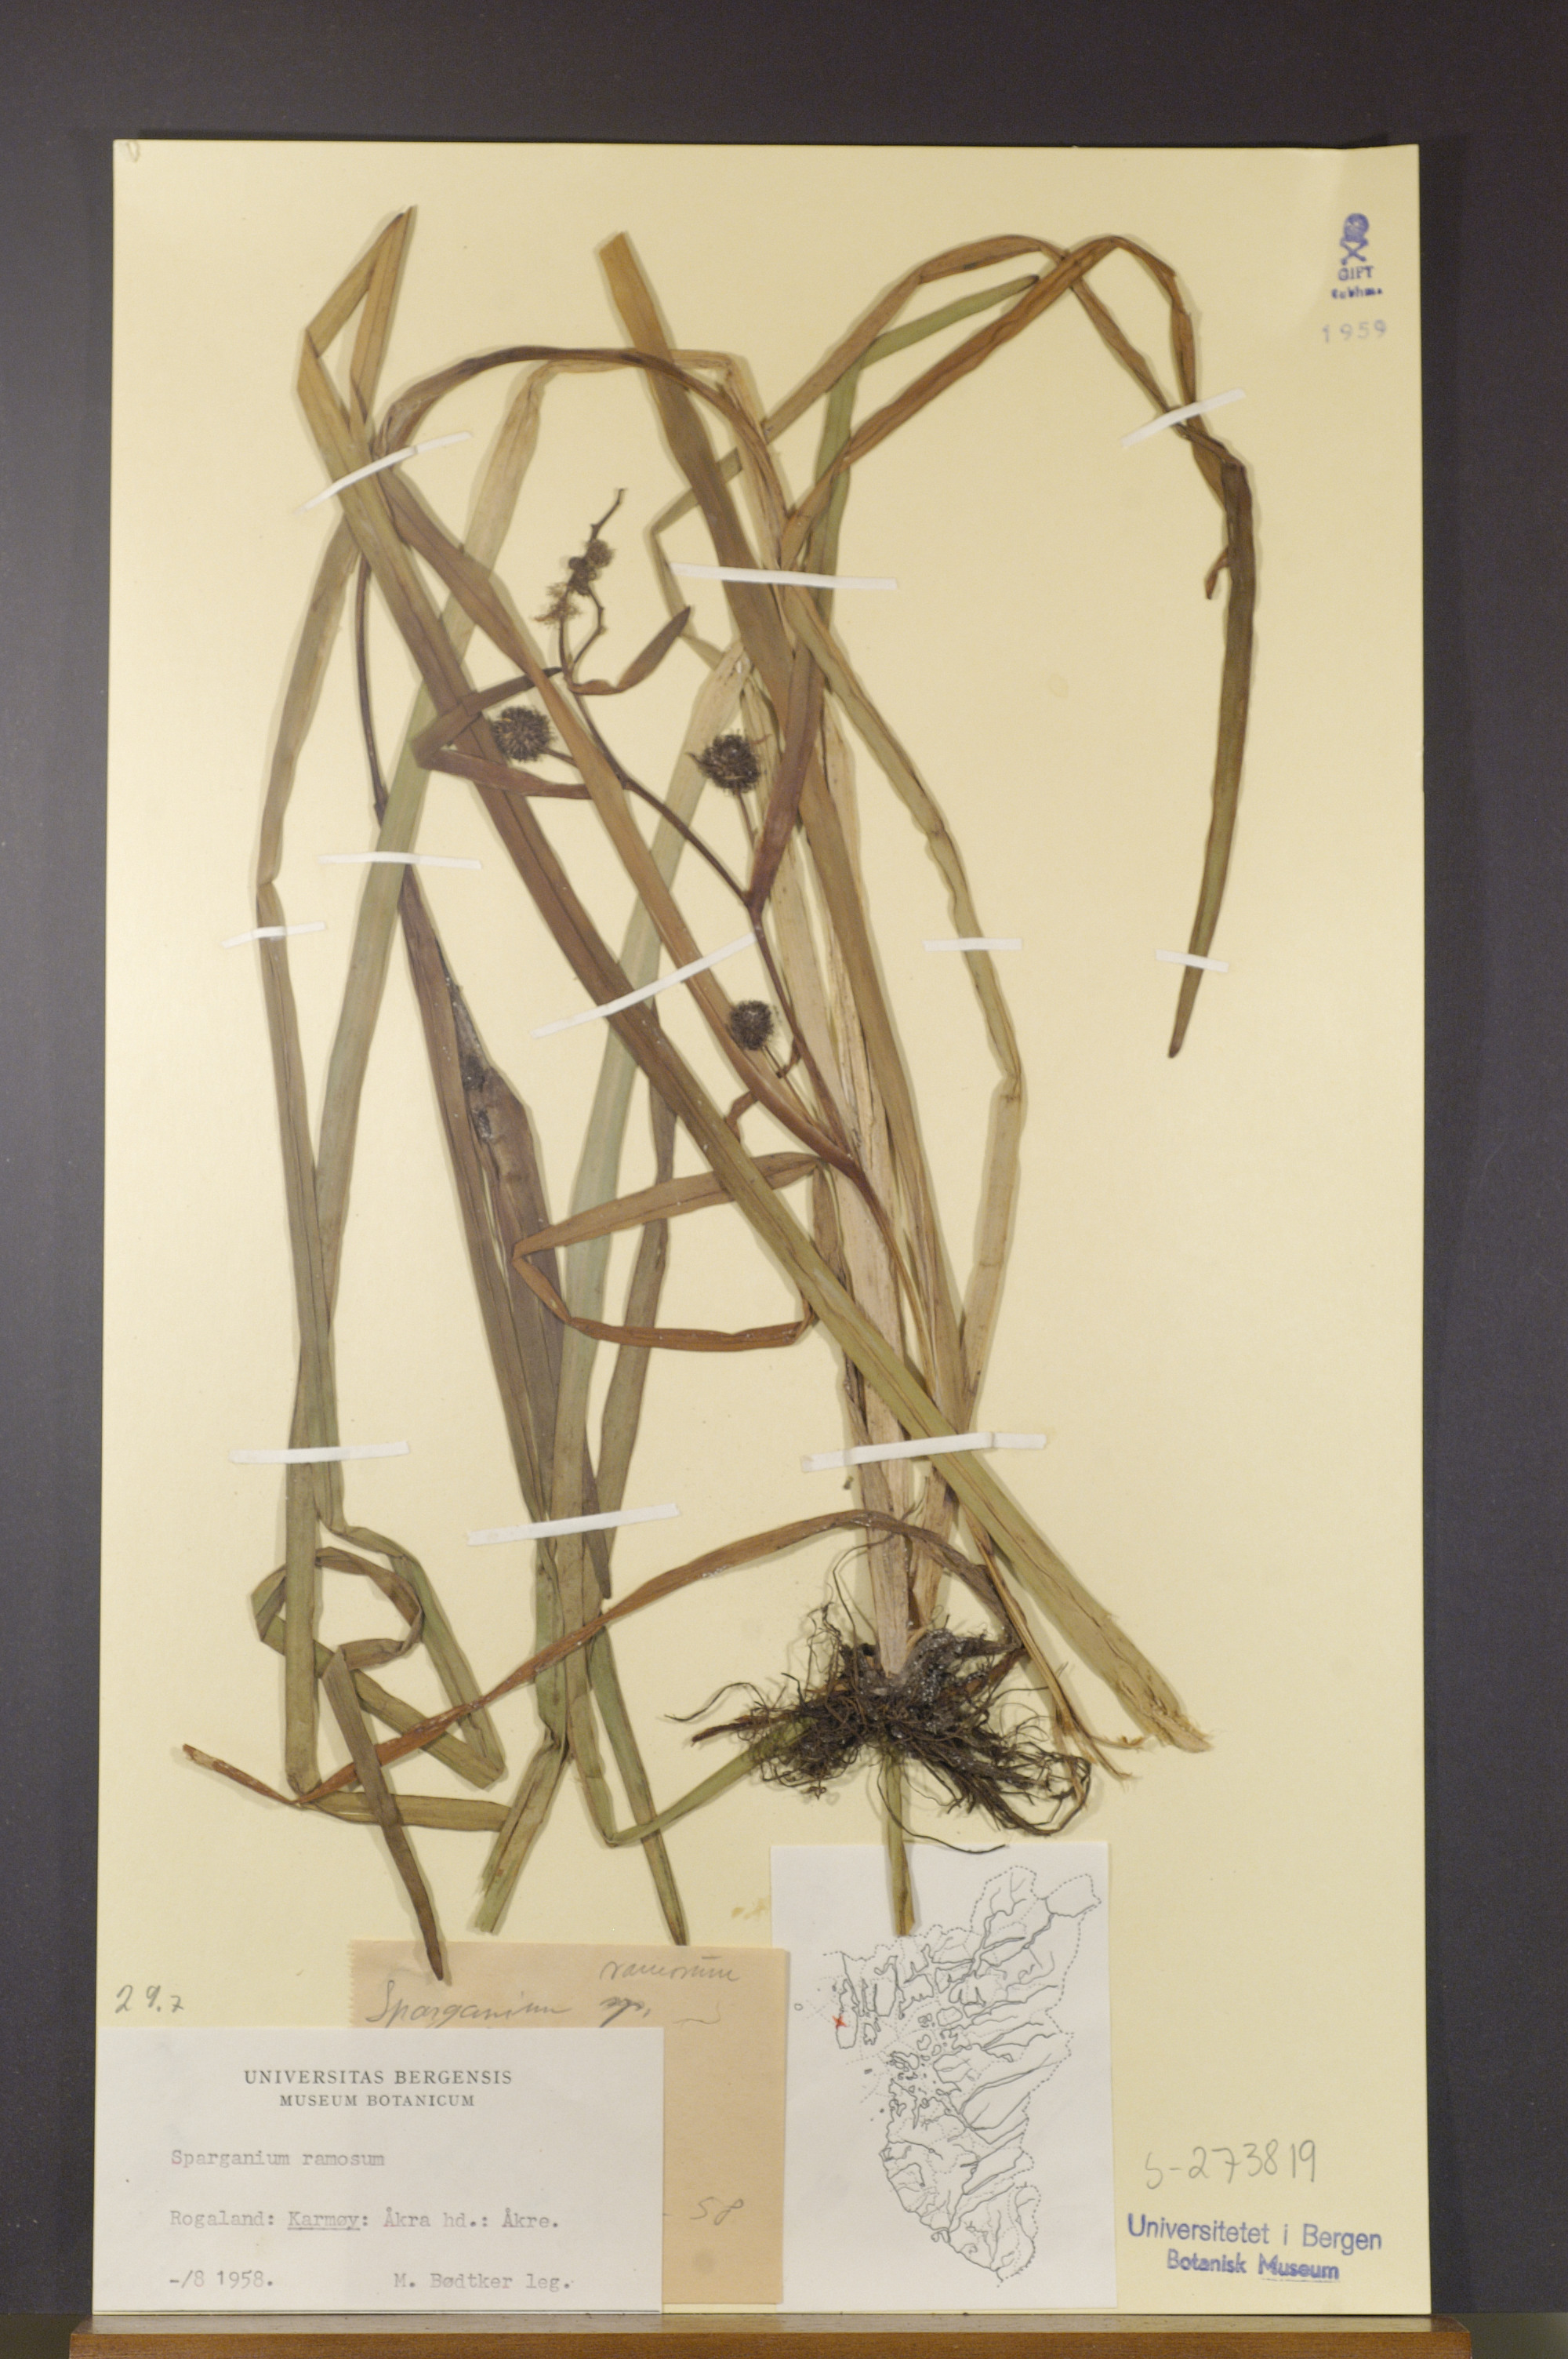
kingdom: Plantae
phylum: Tracheophyta
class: Liliopsida
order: Poales
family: Typhaceae
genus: Sparganium
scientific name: Sparganium erectum
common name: Branched bur-reed
